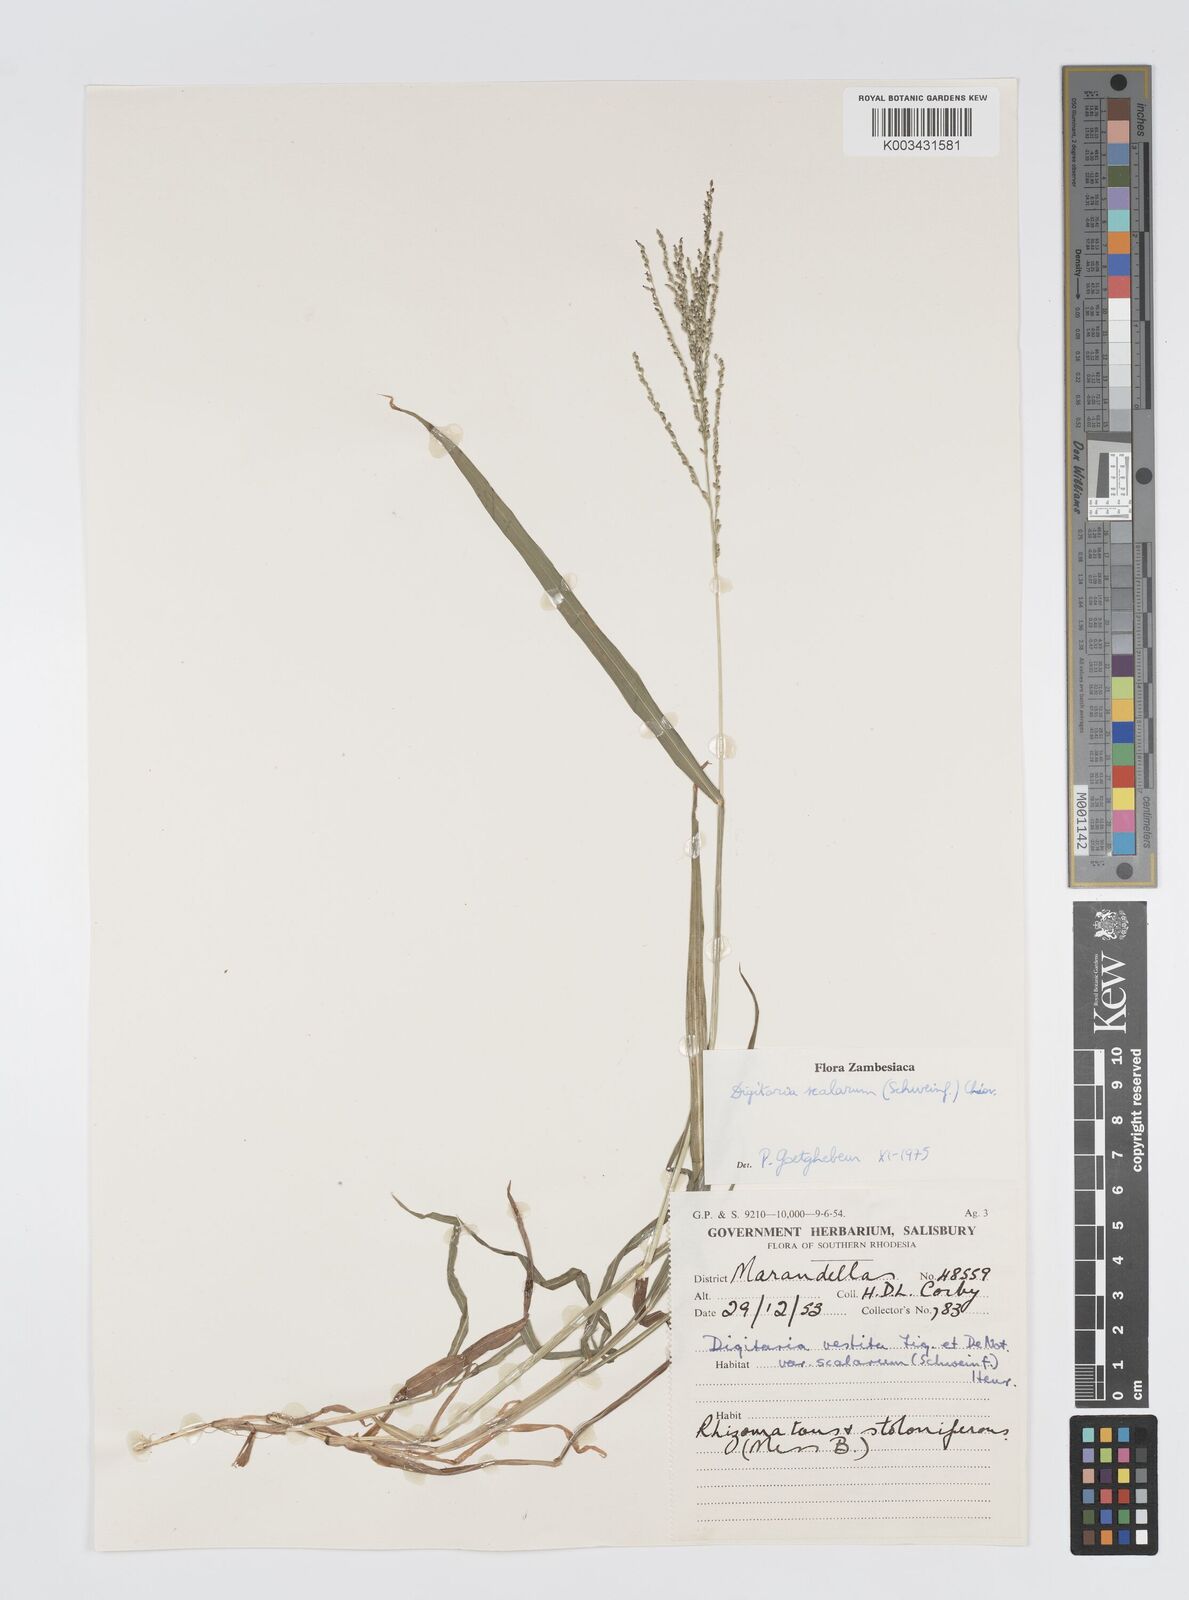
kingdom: Plantae
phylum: Tracheophyta
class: Liliopsida
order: Poales
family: Poaceae
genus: Digitaria
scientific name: Digitaria abyssinica
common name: African couchgrass
